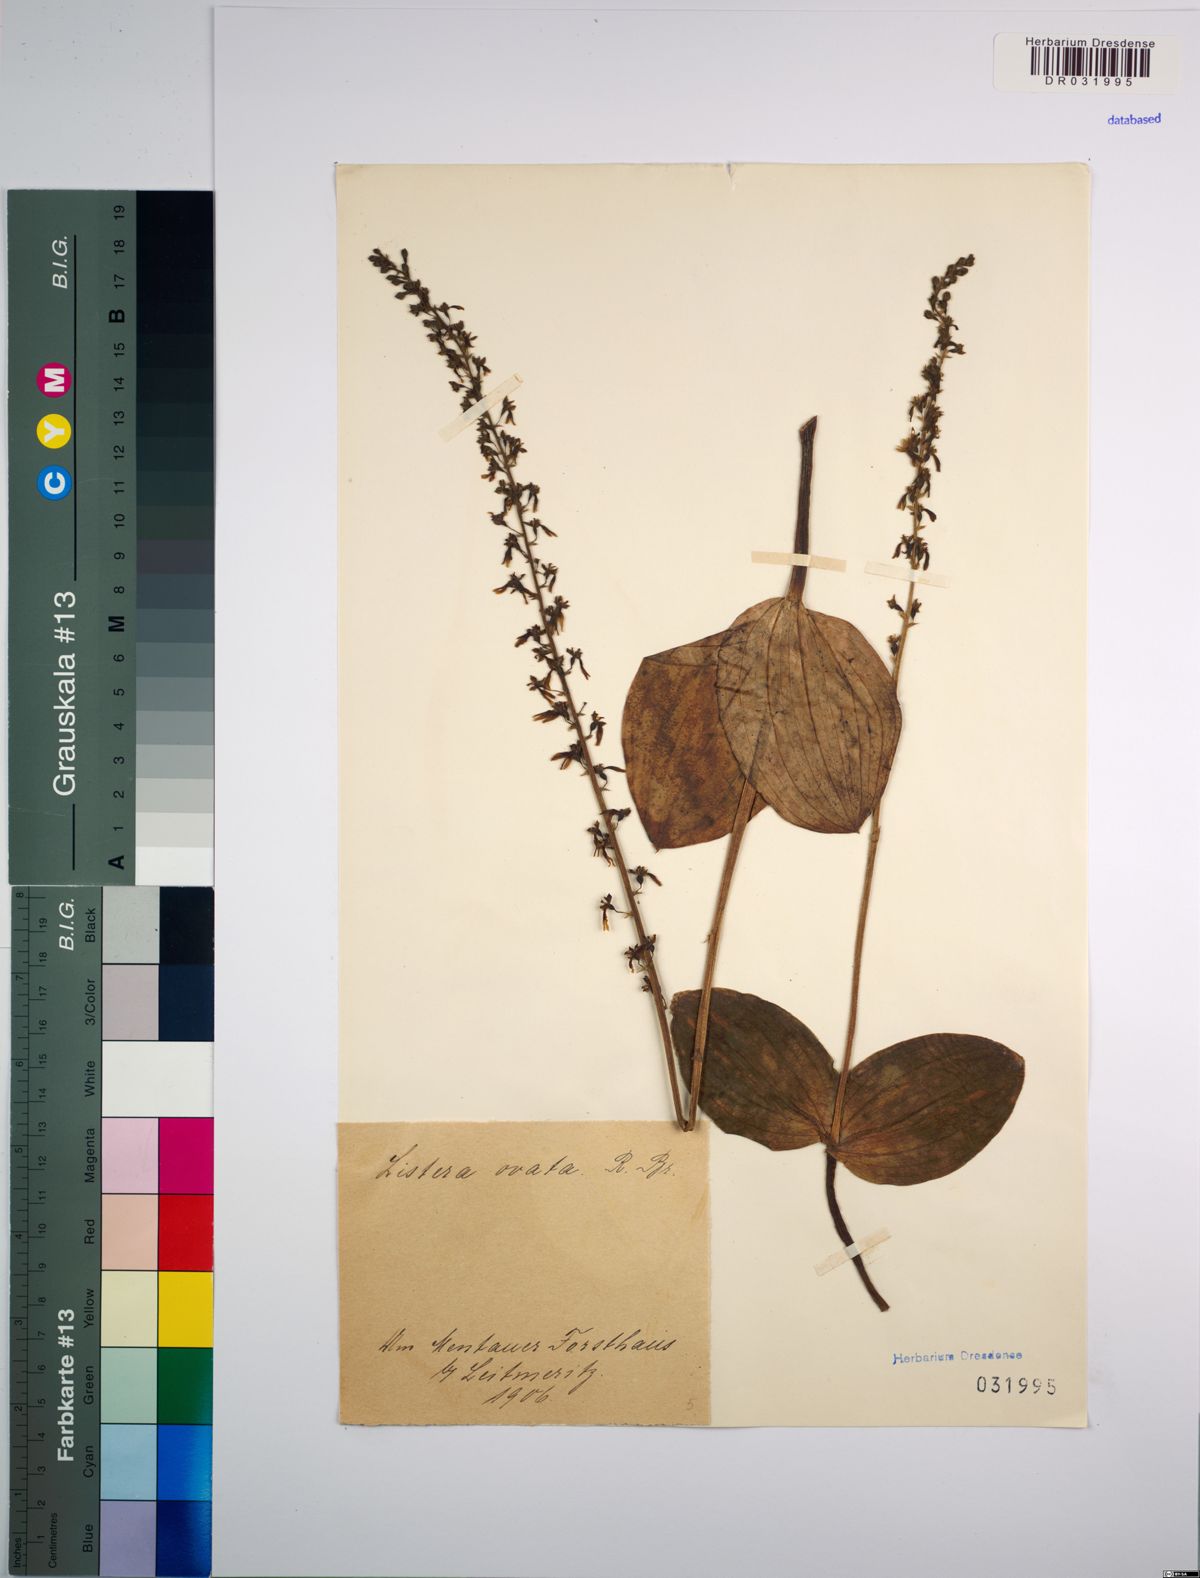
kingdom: Plantae
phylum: Tracheophyta
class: Liliopsida
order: Asparagales
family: Orchidaceae
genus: Neottia
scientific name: Neottia ovata
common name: Common twayblade
